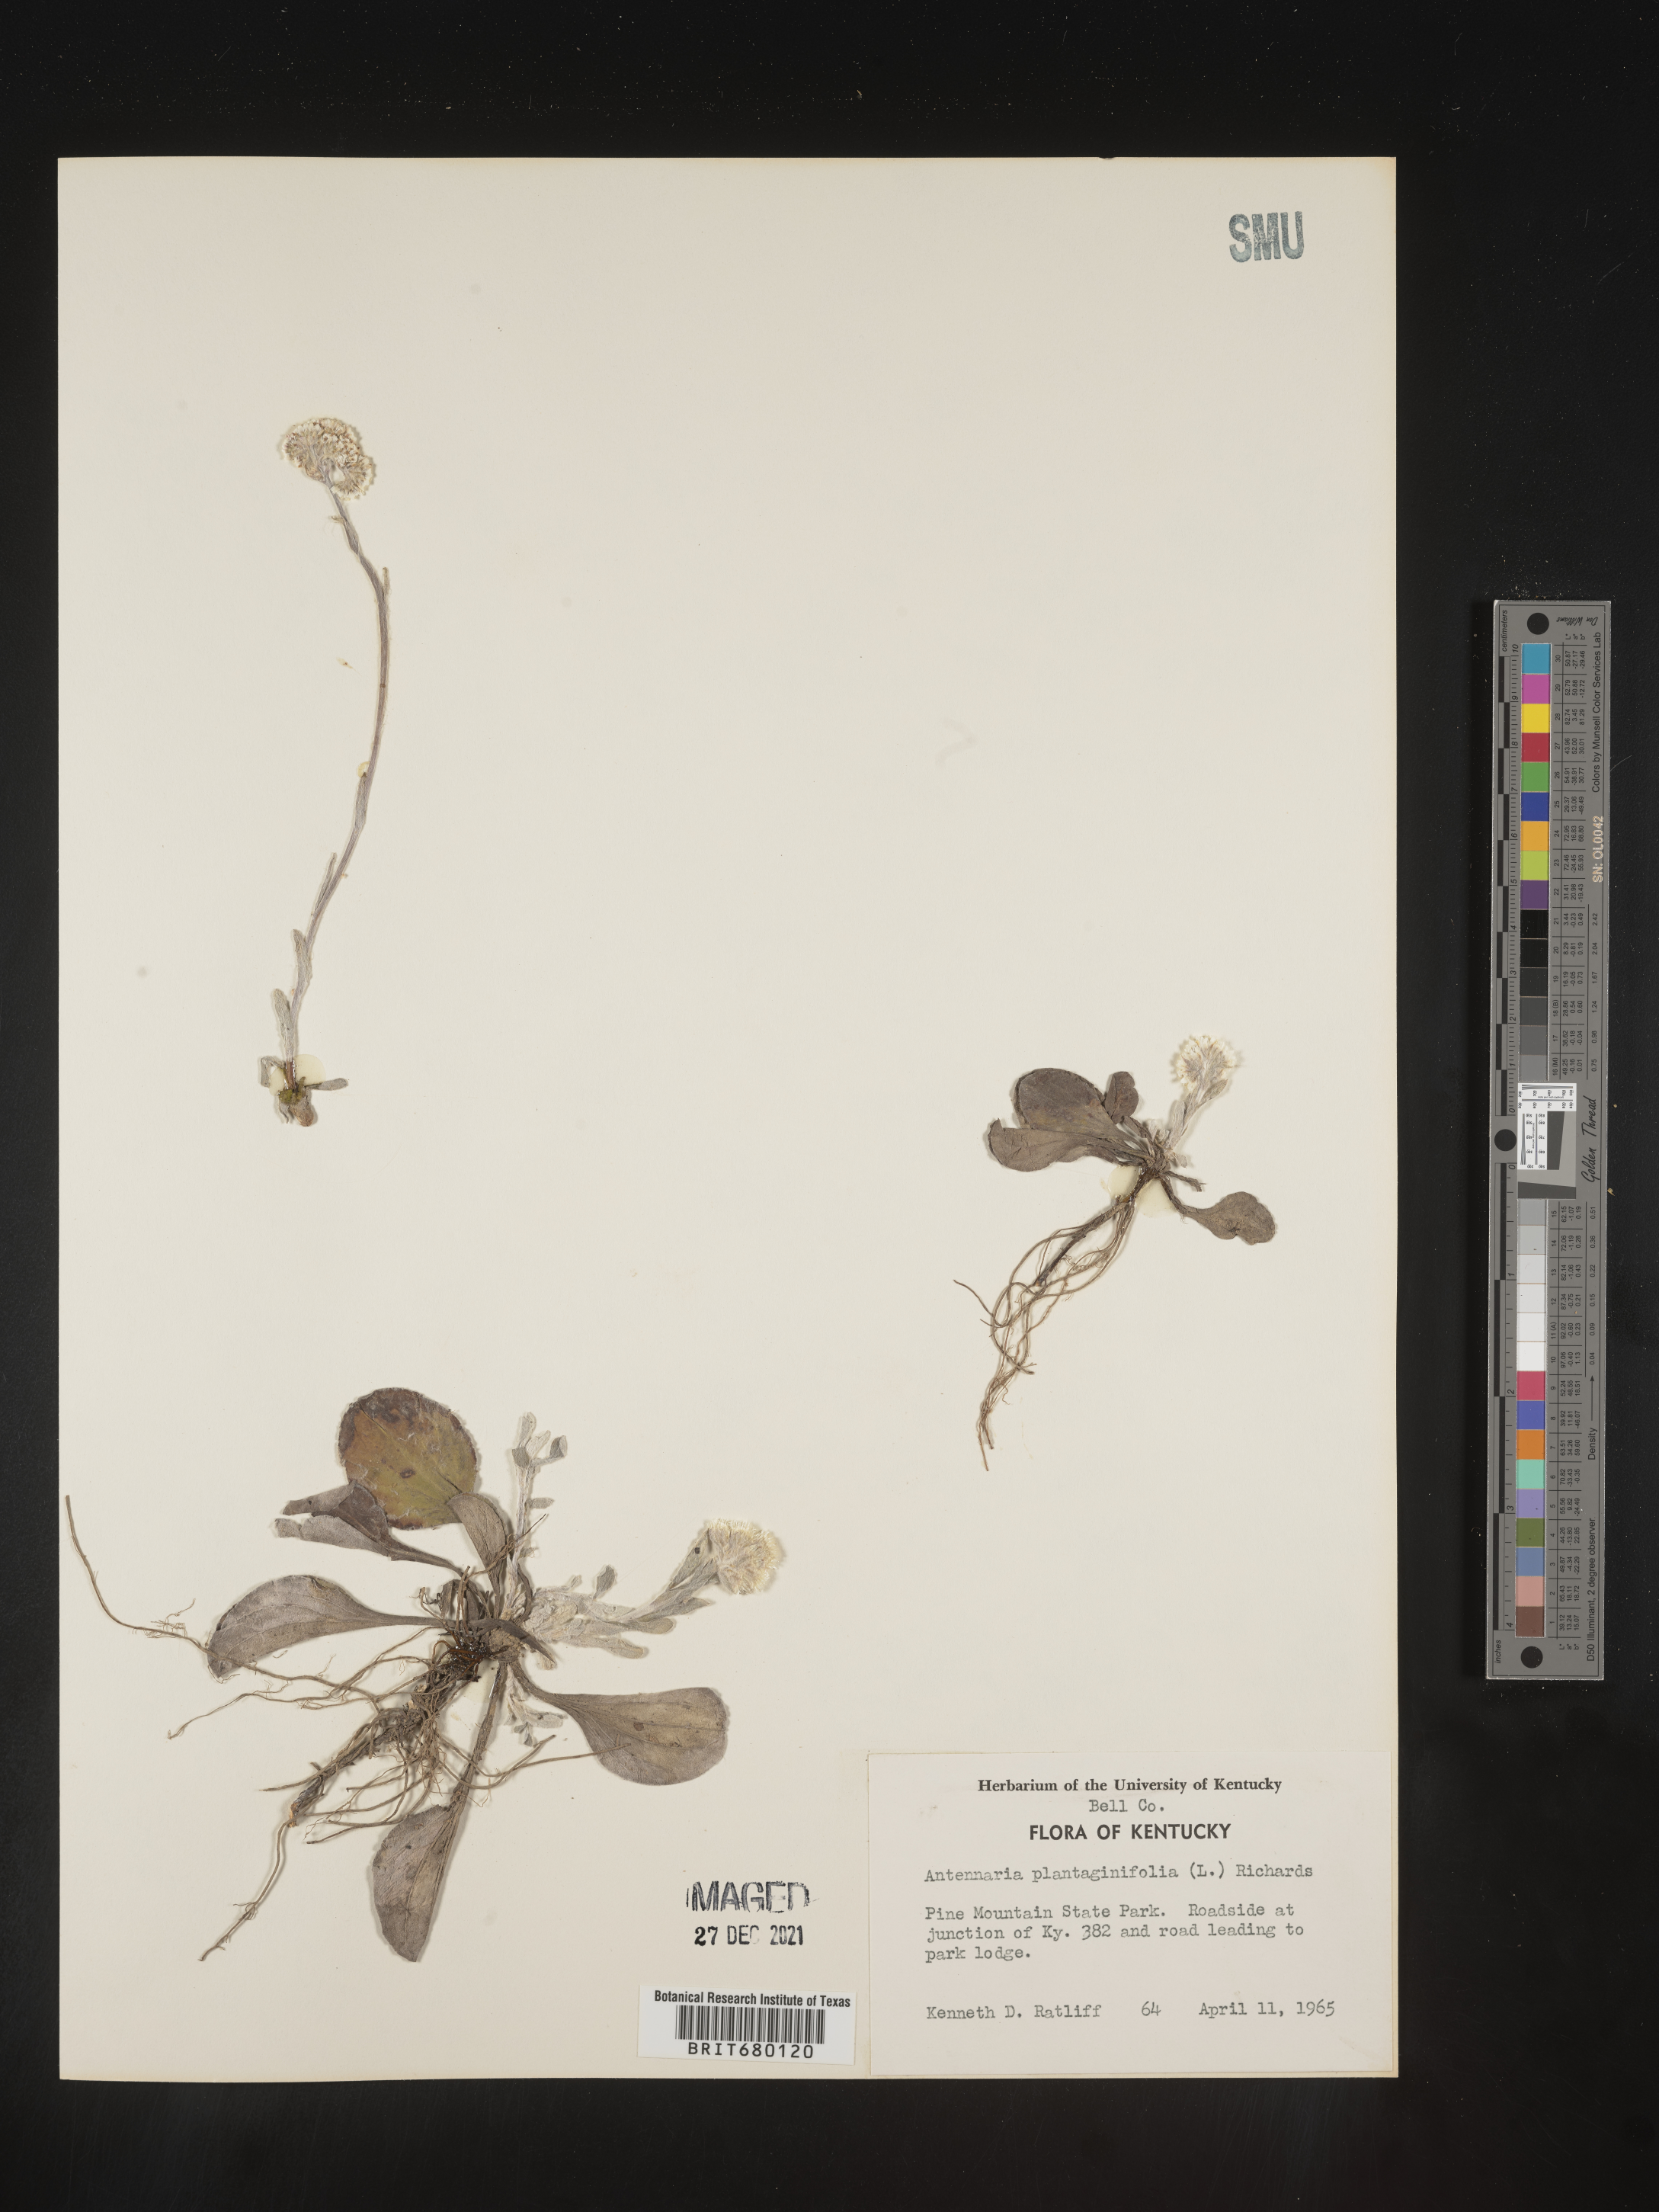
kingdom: Plantae
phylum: Tracheophyta
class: Magnoliopsida
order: Asterales
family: Asteraceae
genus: Antennaria
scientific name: Antennaria plantaginifolia
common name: Plantain-leaved pussytoes
